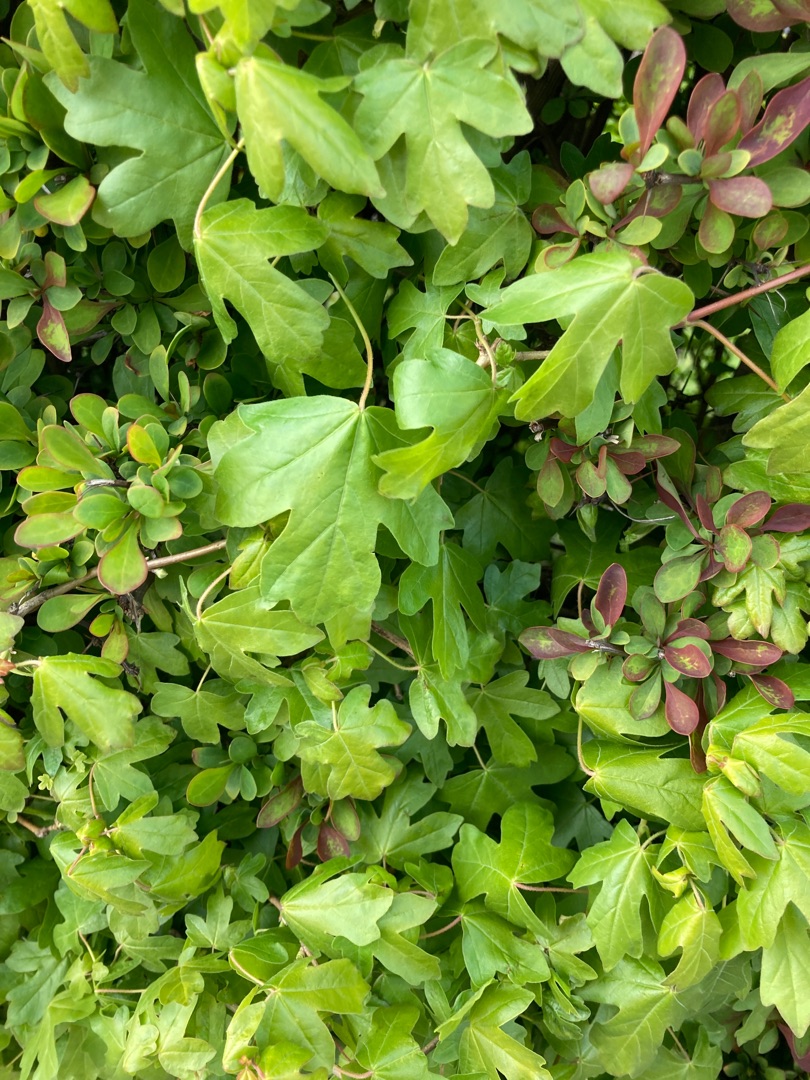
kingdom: Plantae
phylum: Tracheophyta
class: Magnoliopsida
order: Sapindales
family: Sapindaceae
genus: Acer
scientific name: Acer campestre
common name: Navr
